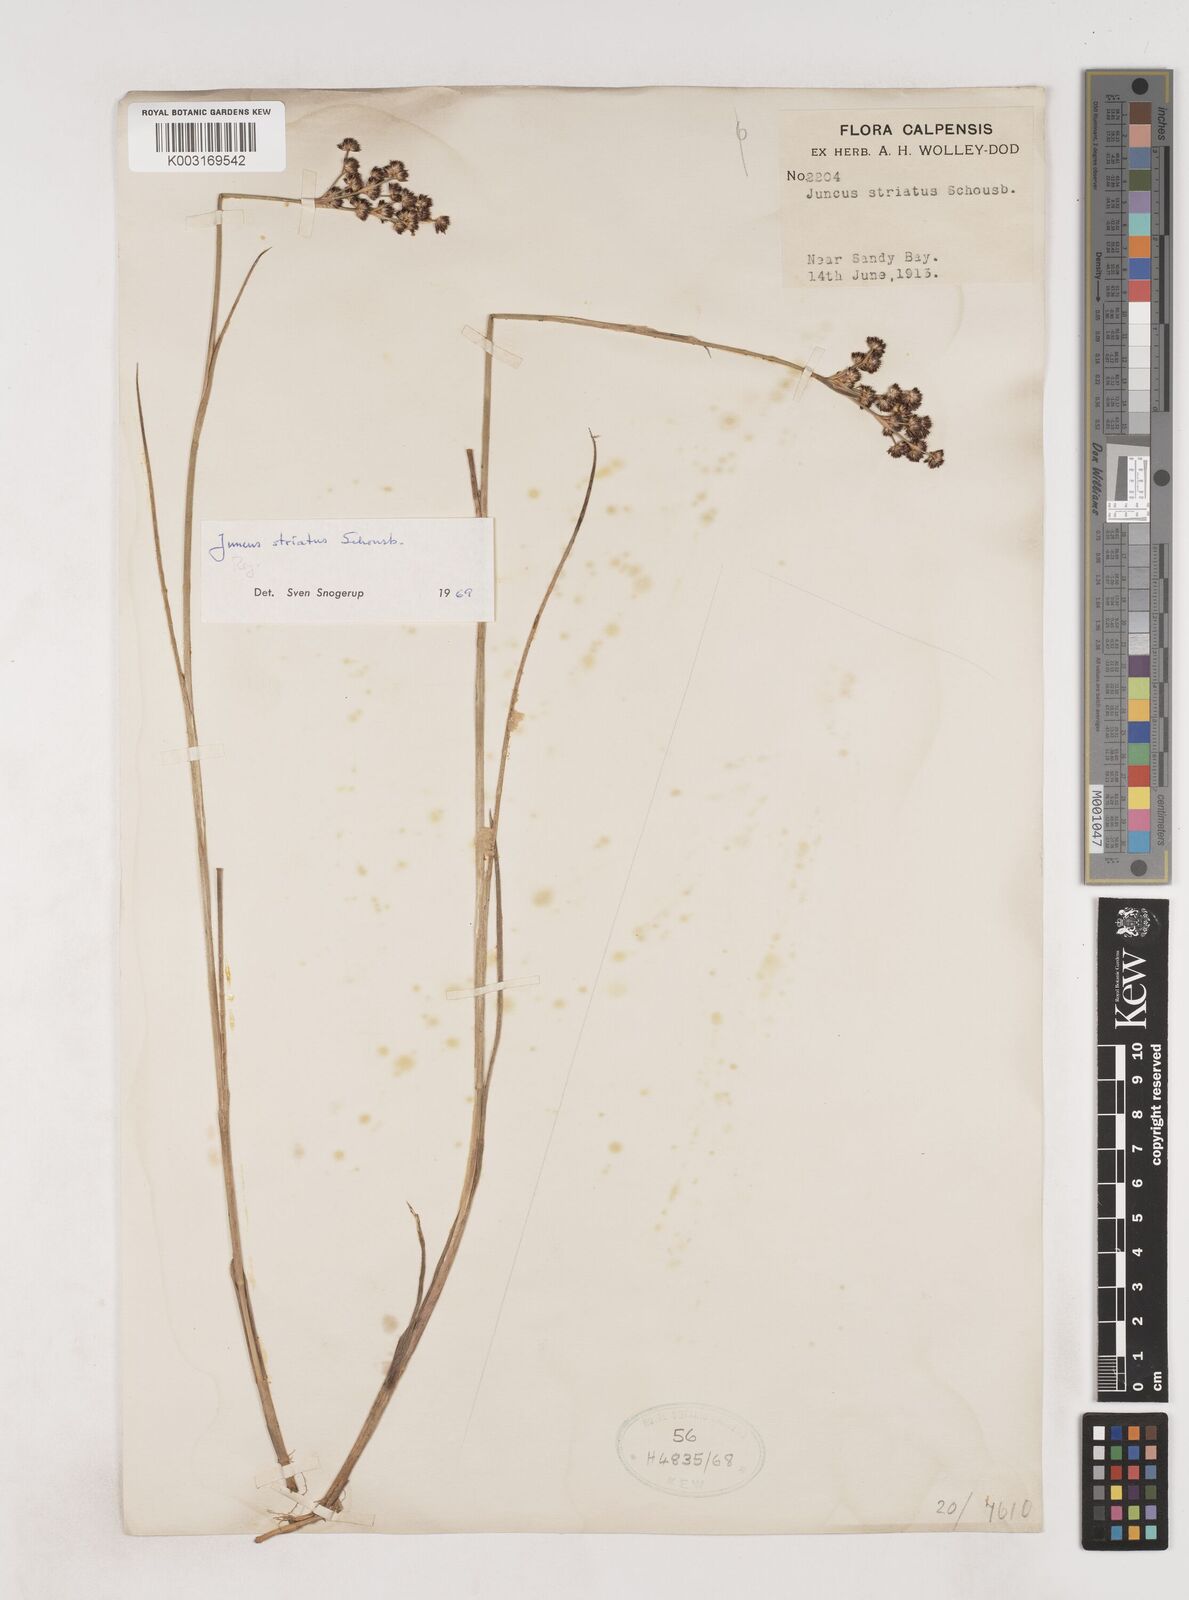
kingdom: Plantae
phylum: Tracheophyta
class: Liliopsida
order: Poales
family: Juncaceae
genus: Juncus
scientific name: Juncus striatus
